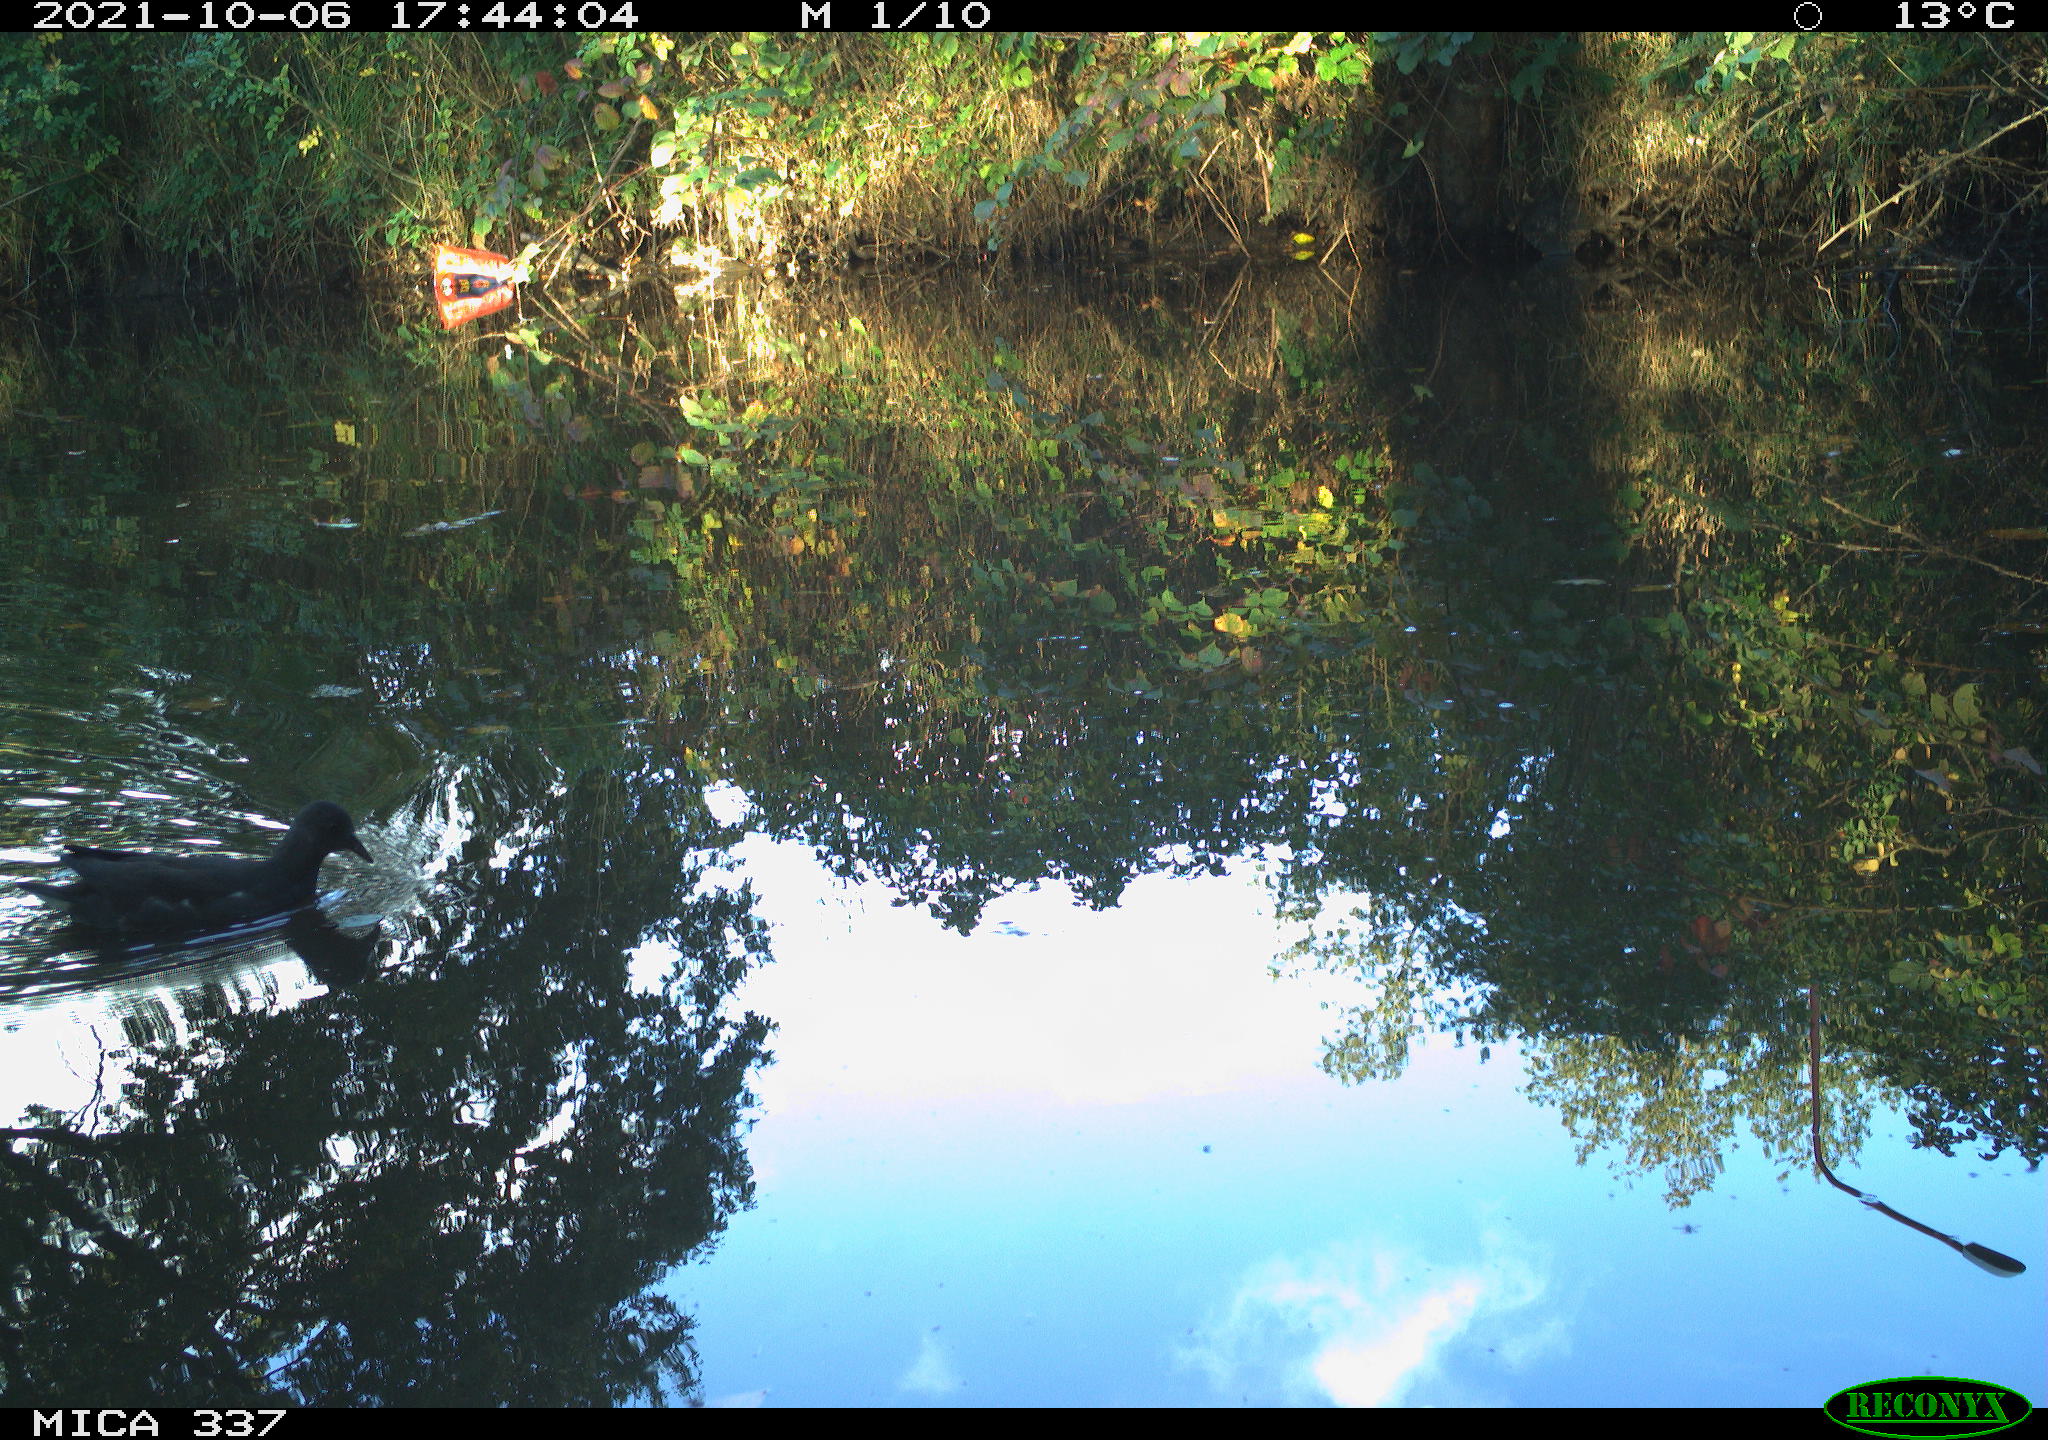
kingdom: Animalia
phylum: Chordata
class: Aves
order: Gruiformes
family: Rallidae
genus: Gallinula
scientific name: Gallinula chloropus
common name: Common moorhen
